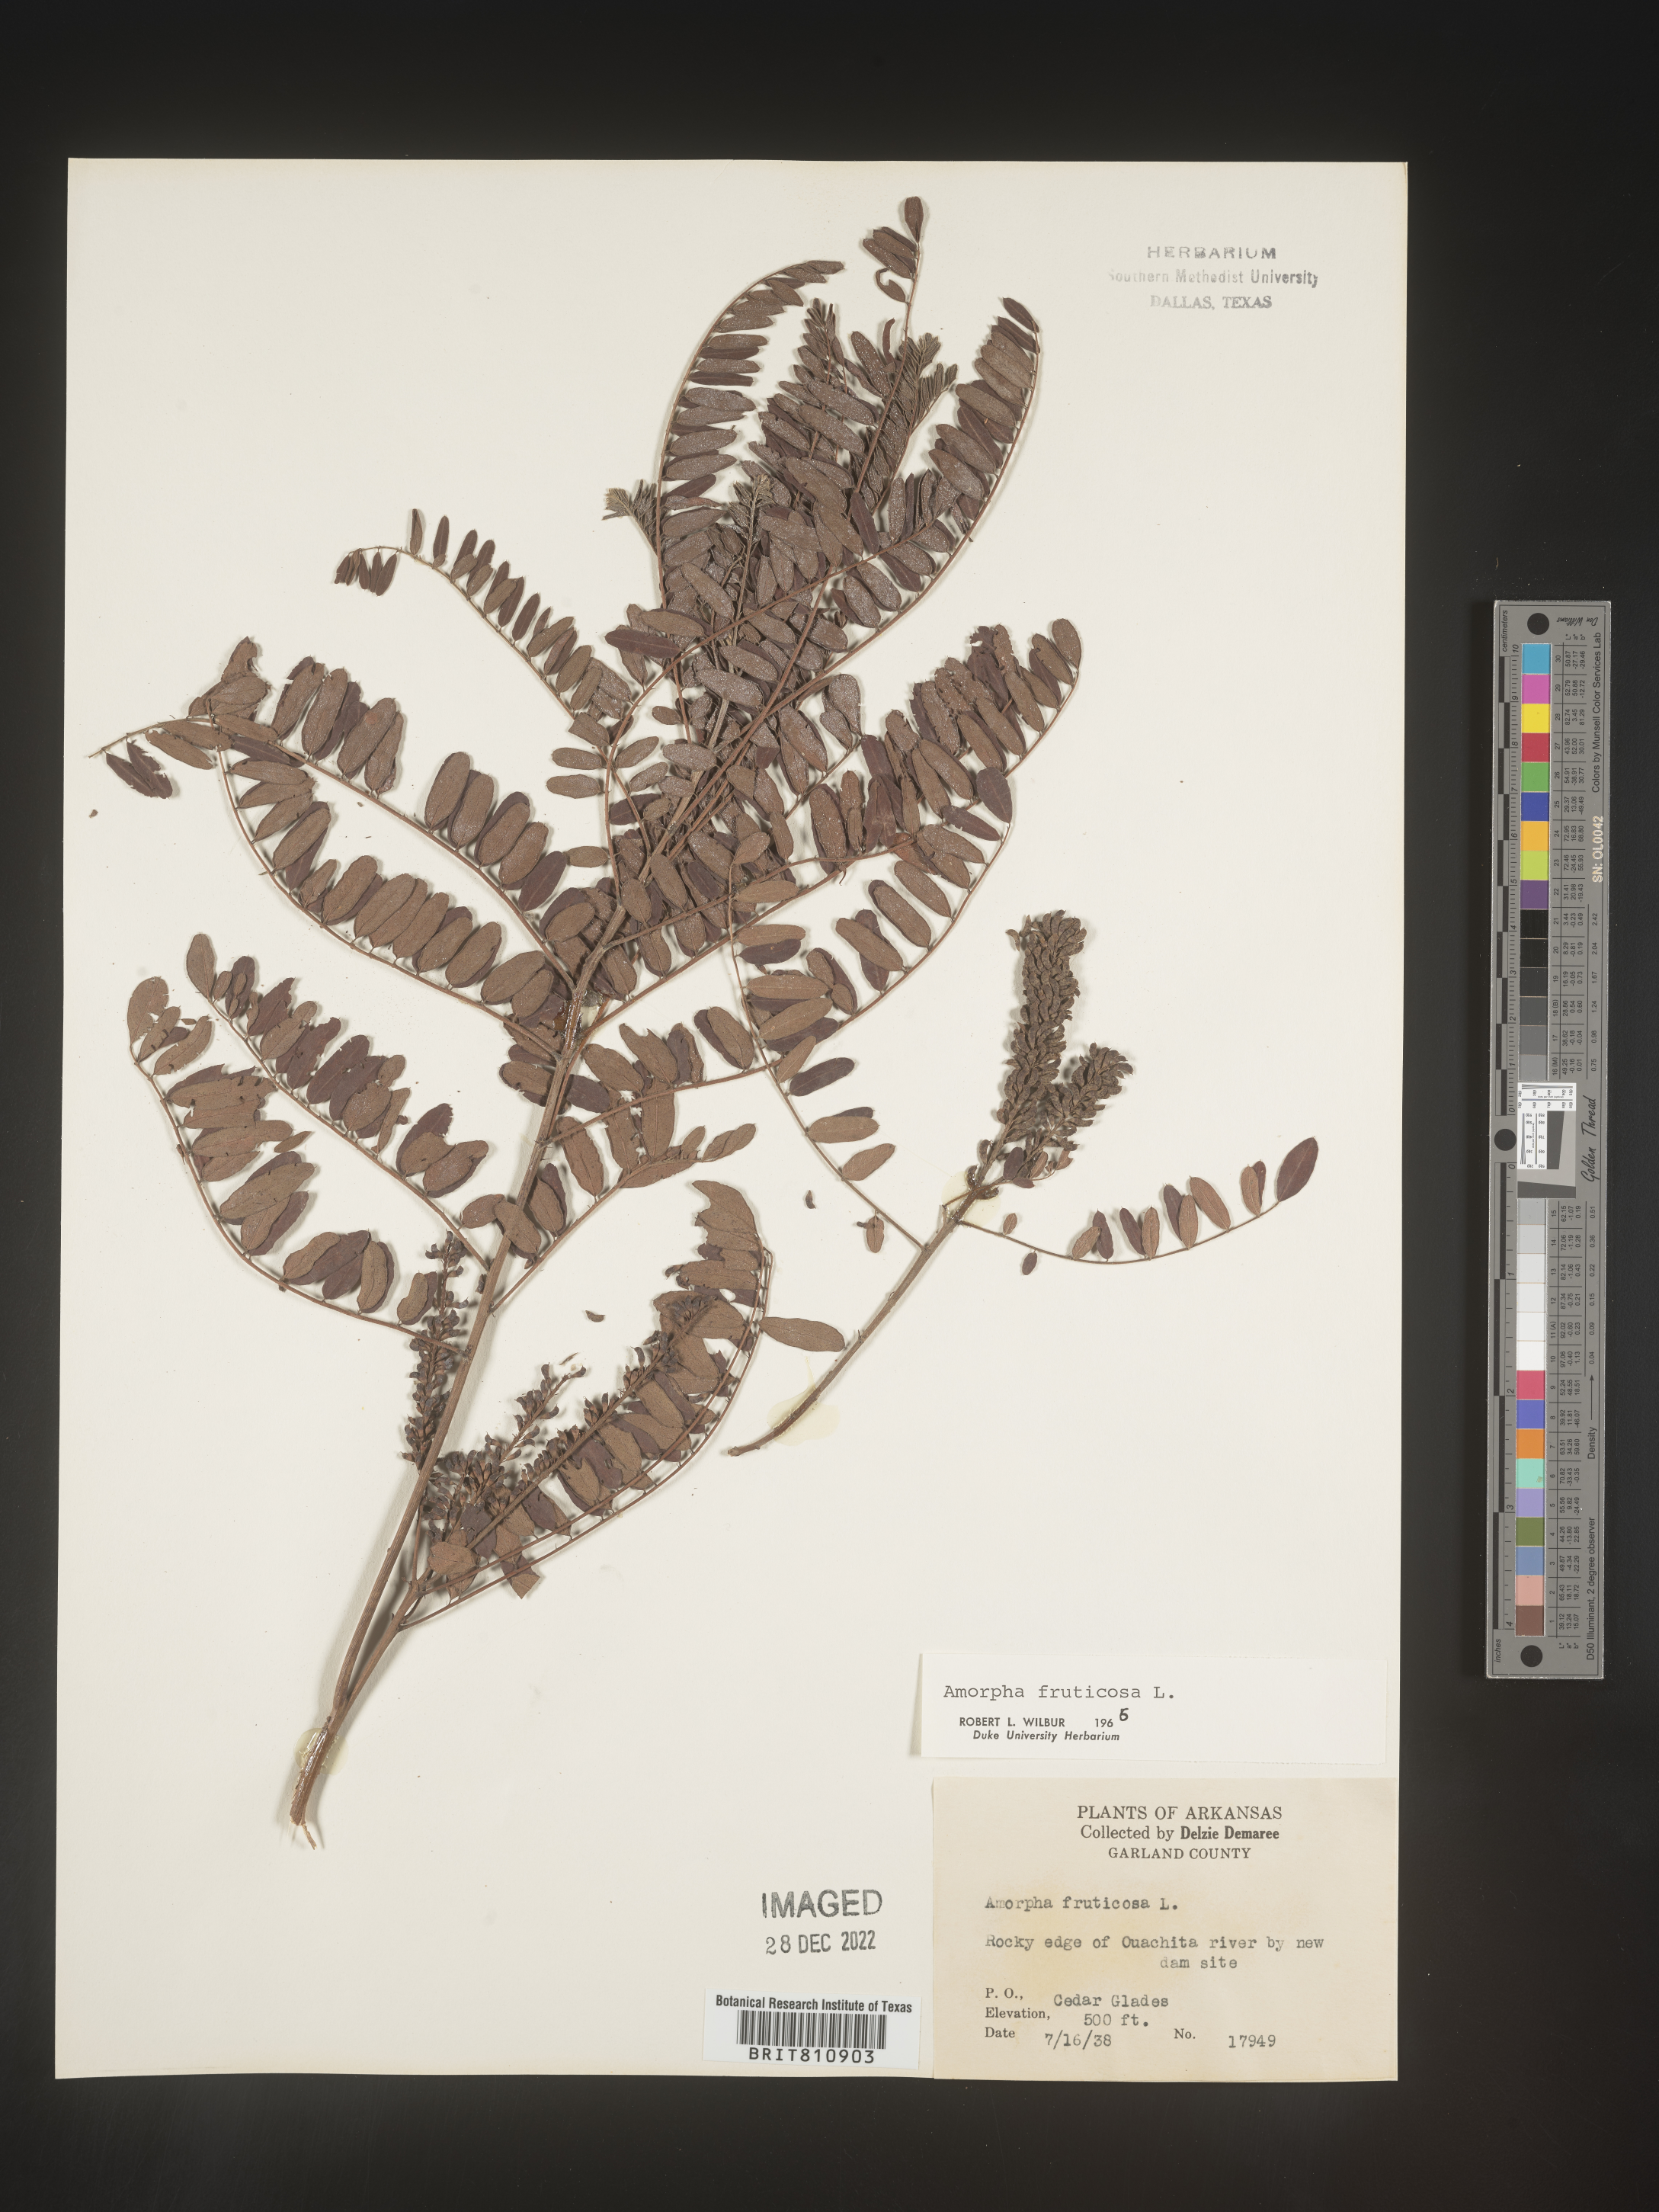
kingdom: Plantae
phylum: Tracheophyta
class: Magnoliopsida
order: Fabales
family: Fabaceae
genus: Amorpha
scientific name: Amorpha fruticosa
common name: False indigo
